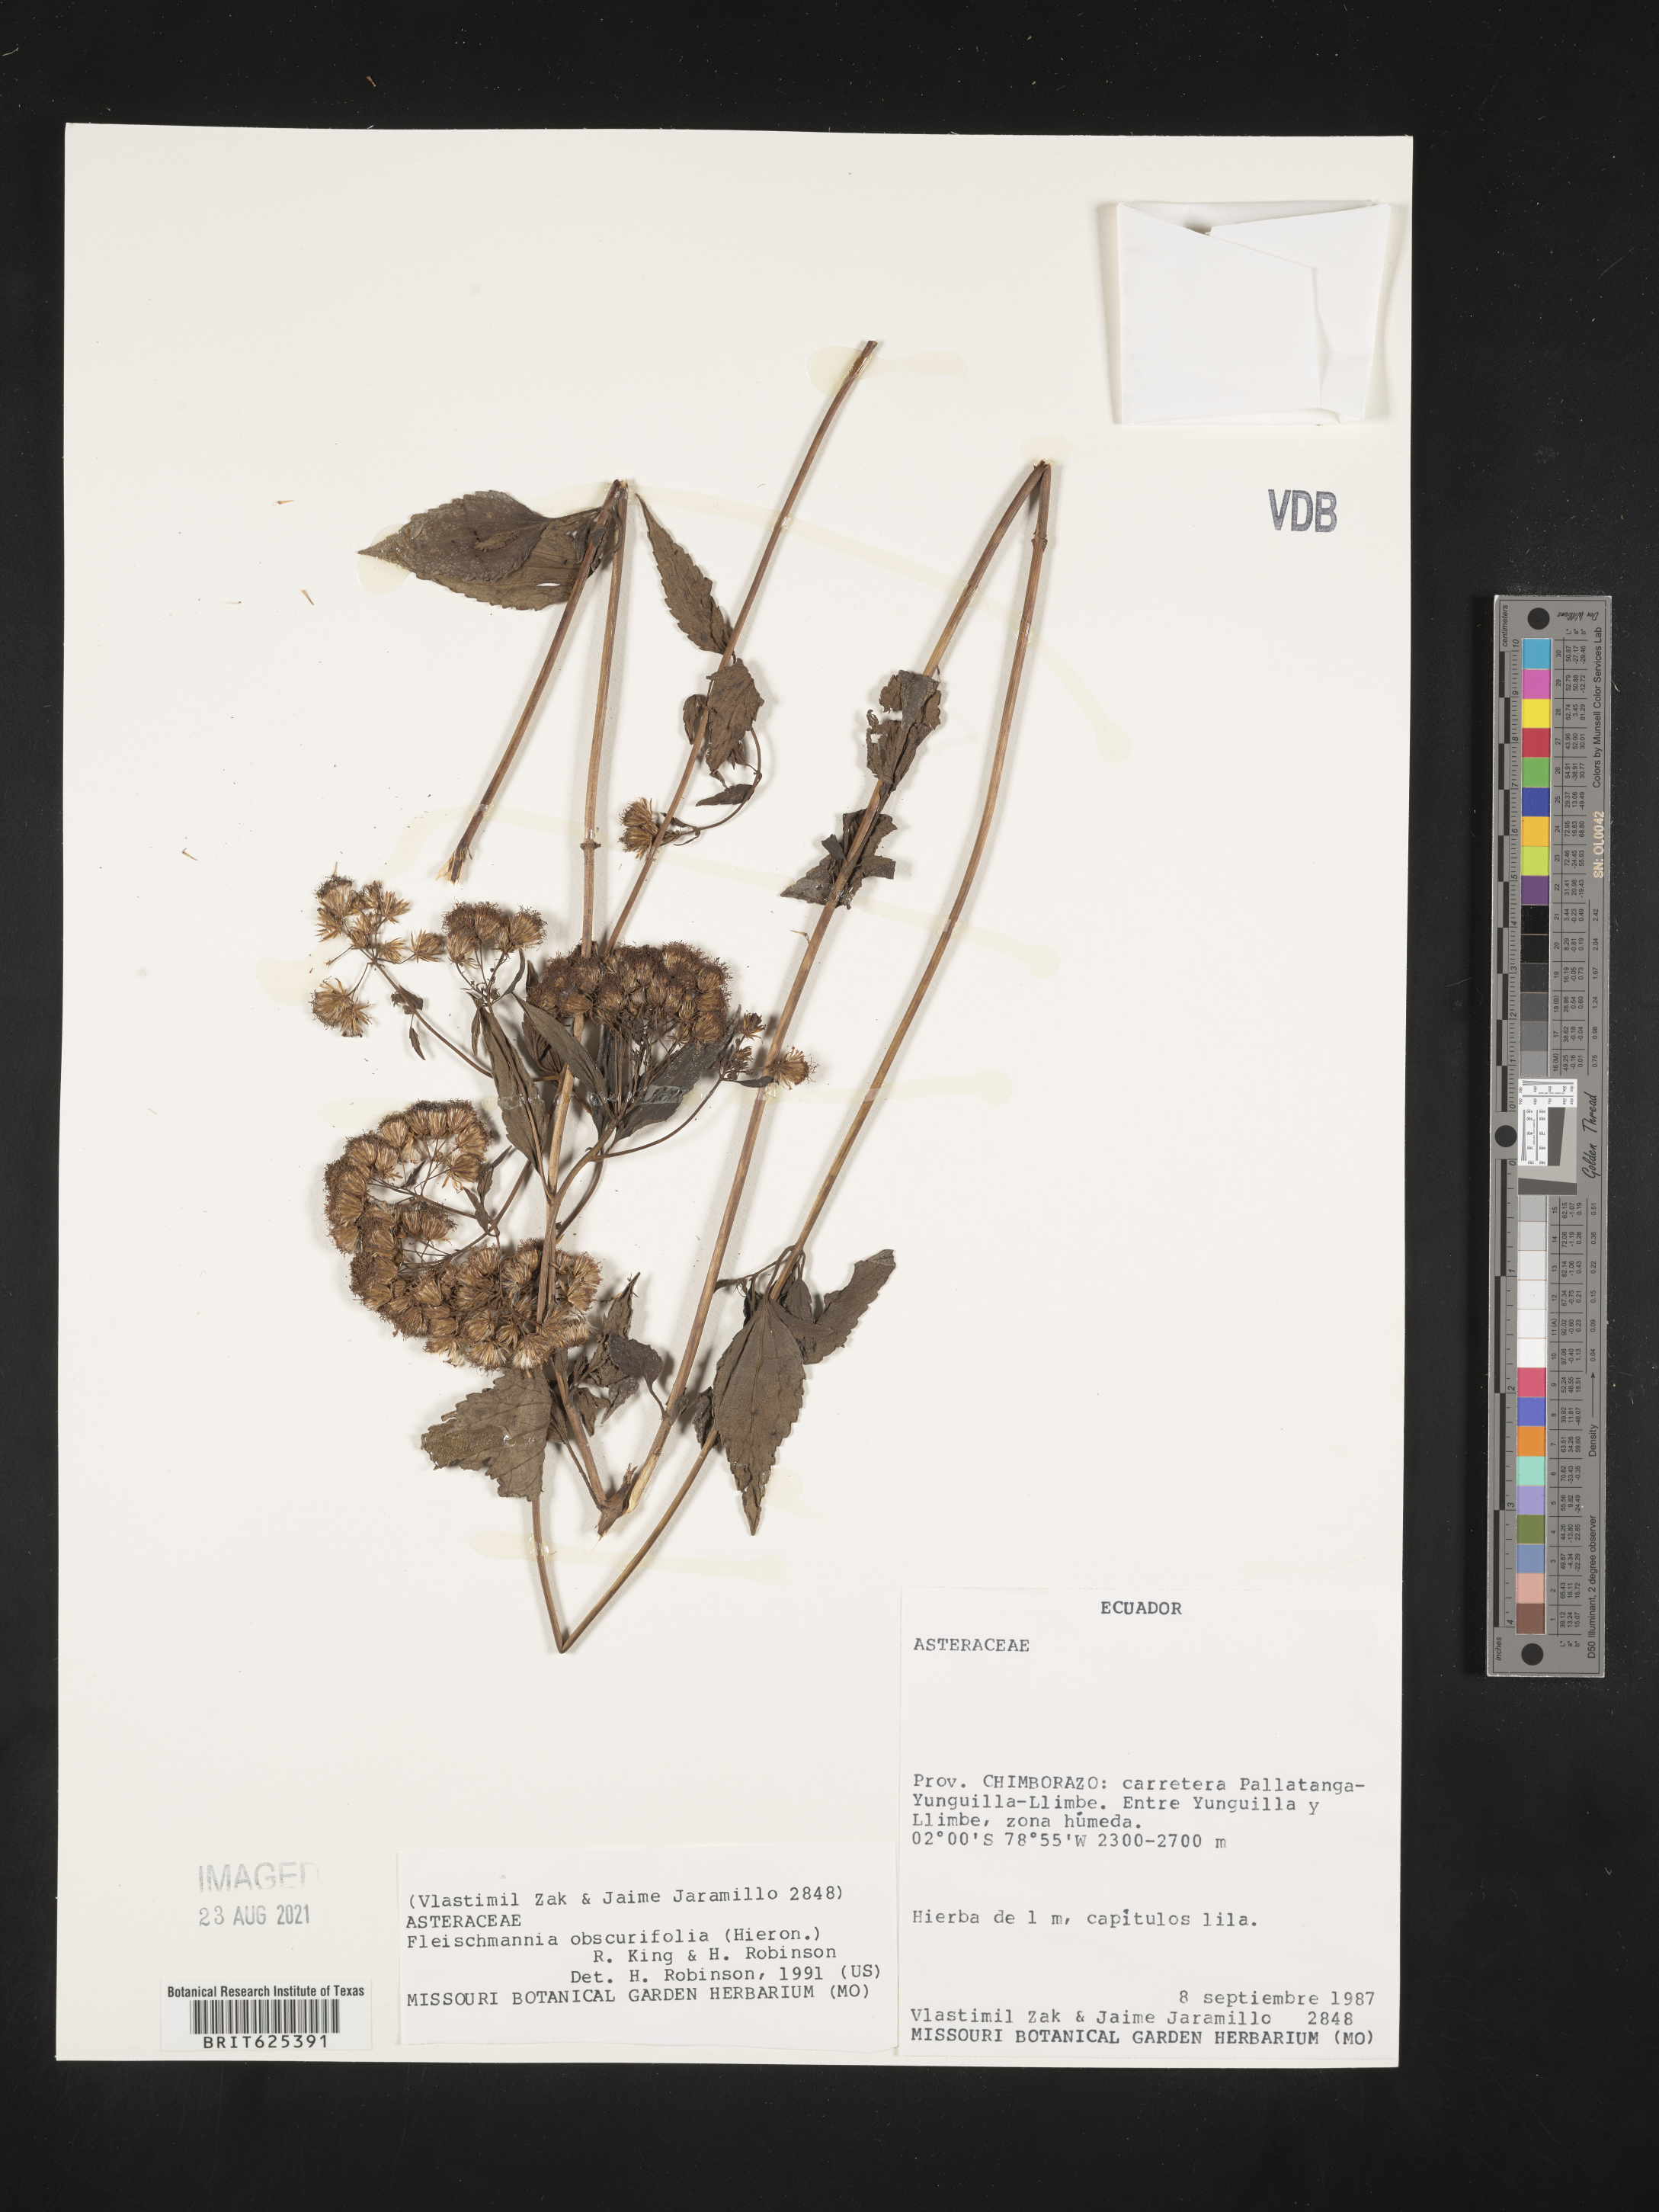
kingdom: Plantae
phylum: Tracheophyta
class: Magnoliopsida
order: Asterales
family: Asteraceae
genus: Fleischmannia
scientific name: Fleischmannia obscurifolia
